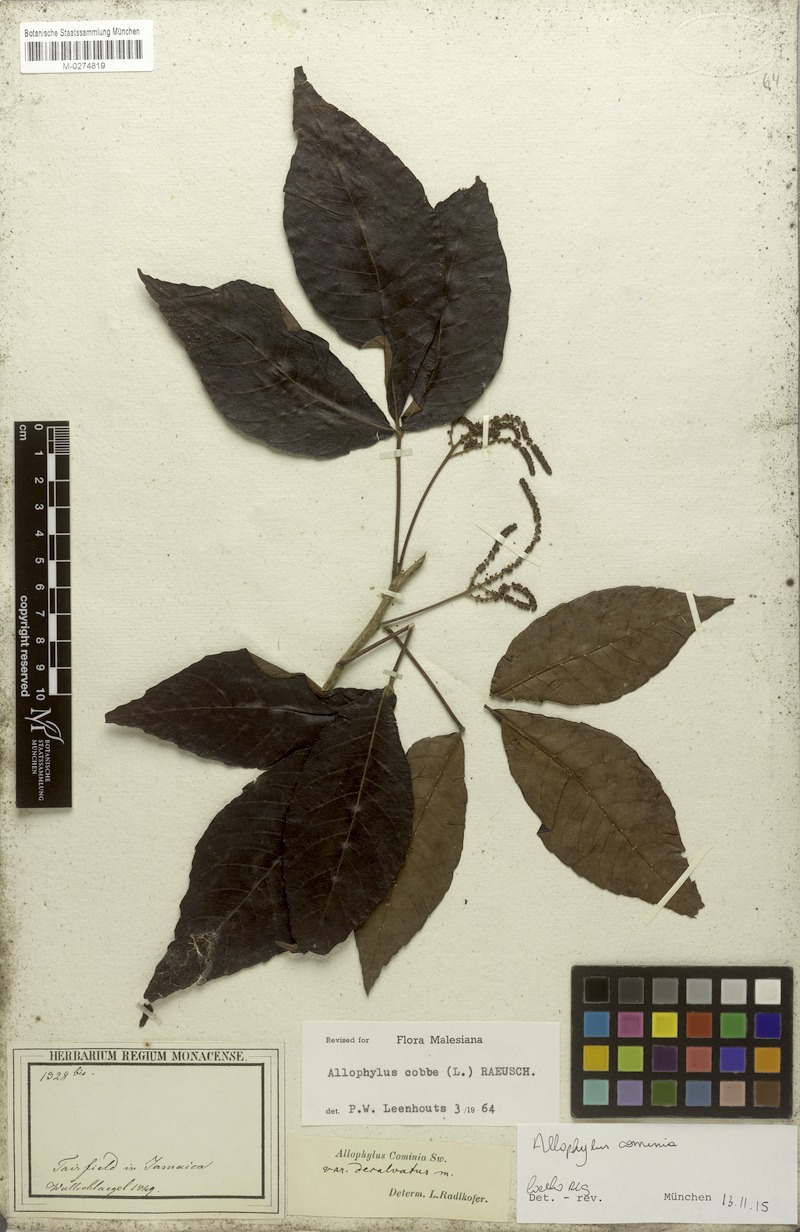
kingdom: Plantae
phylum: Tracheophyta
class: Magnoliopsida
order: Sapindales
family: Sapindaceae
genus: Allophylus
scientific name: Allophylus cominia
